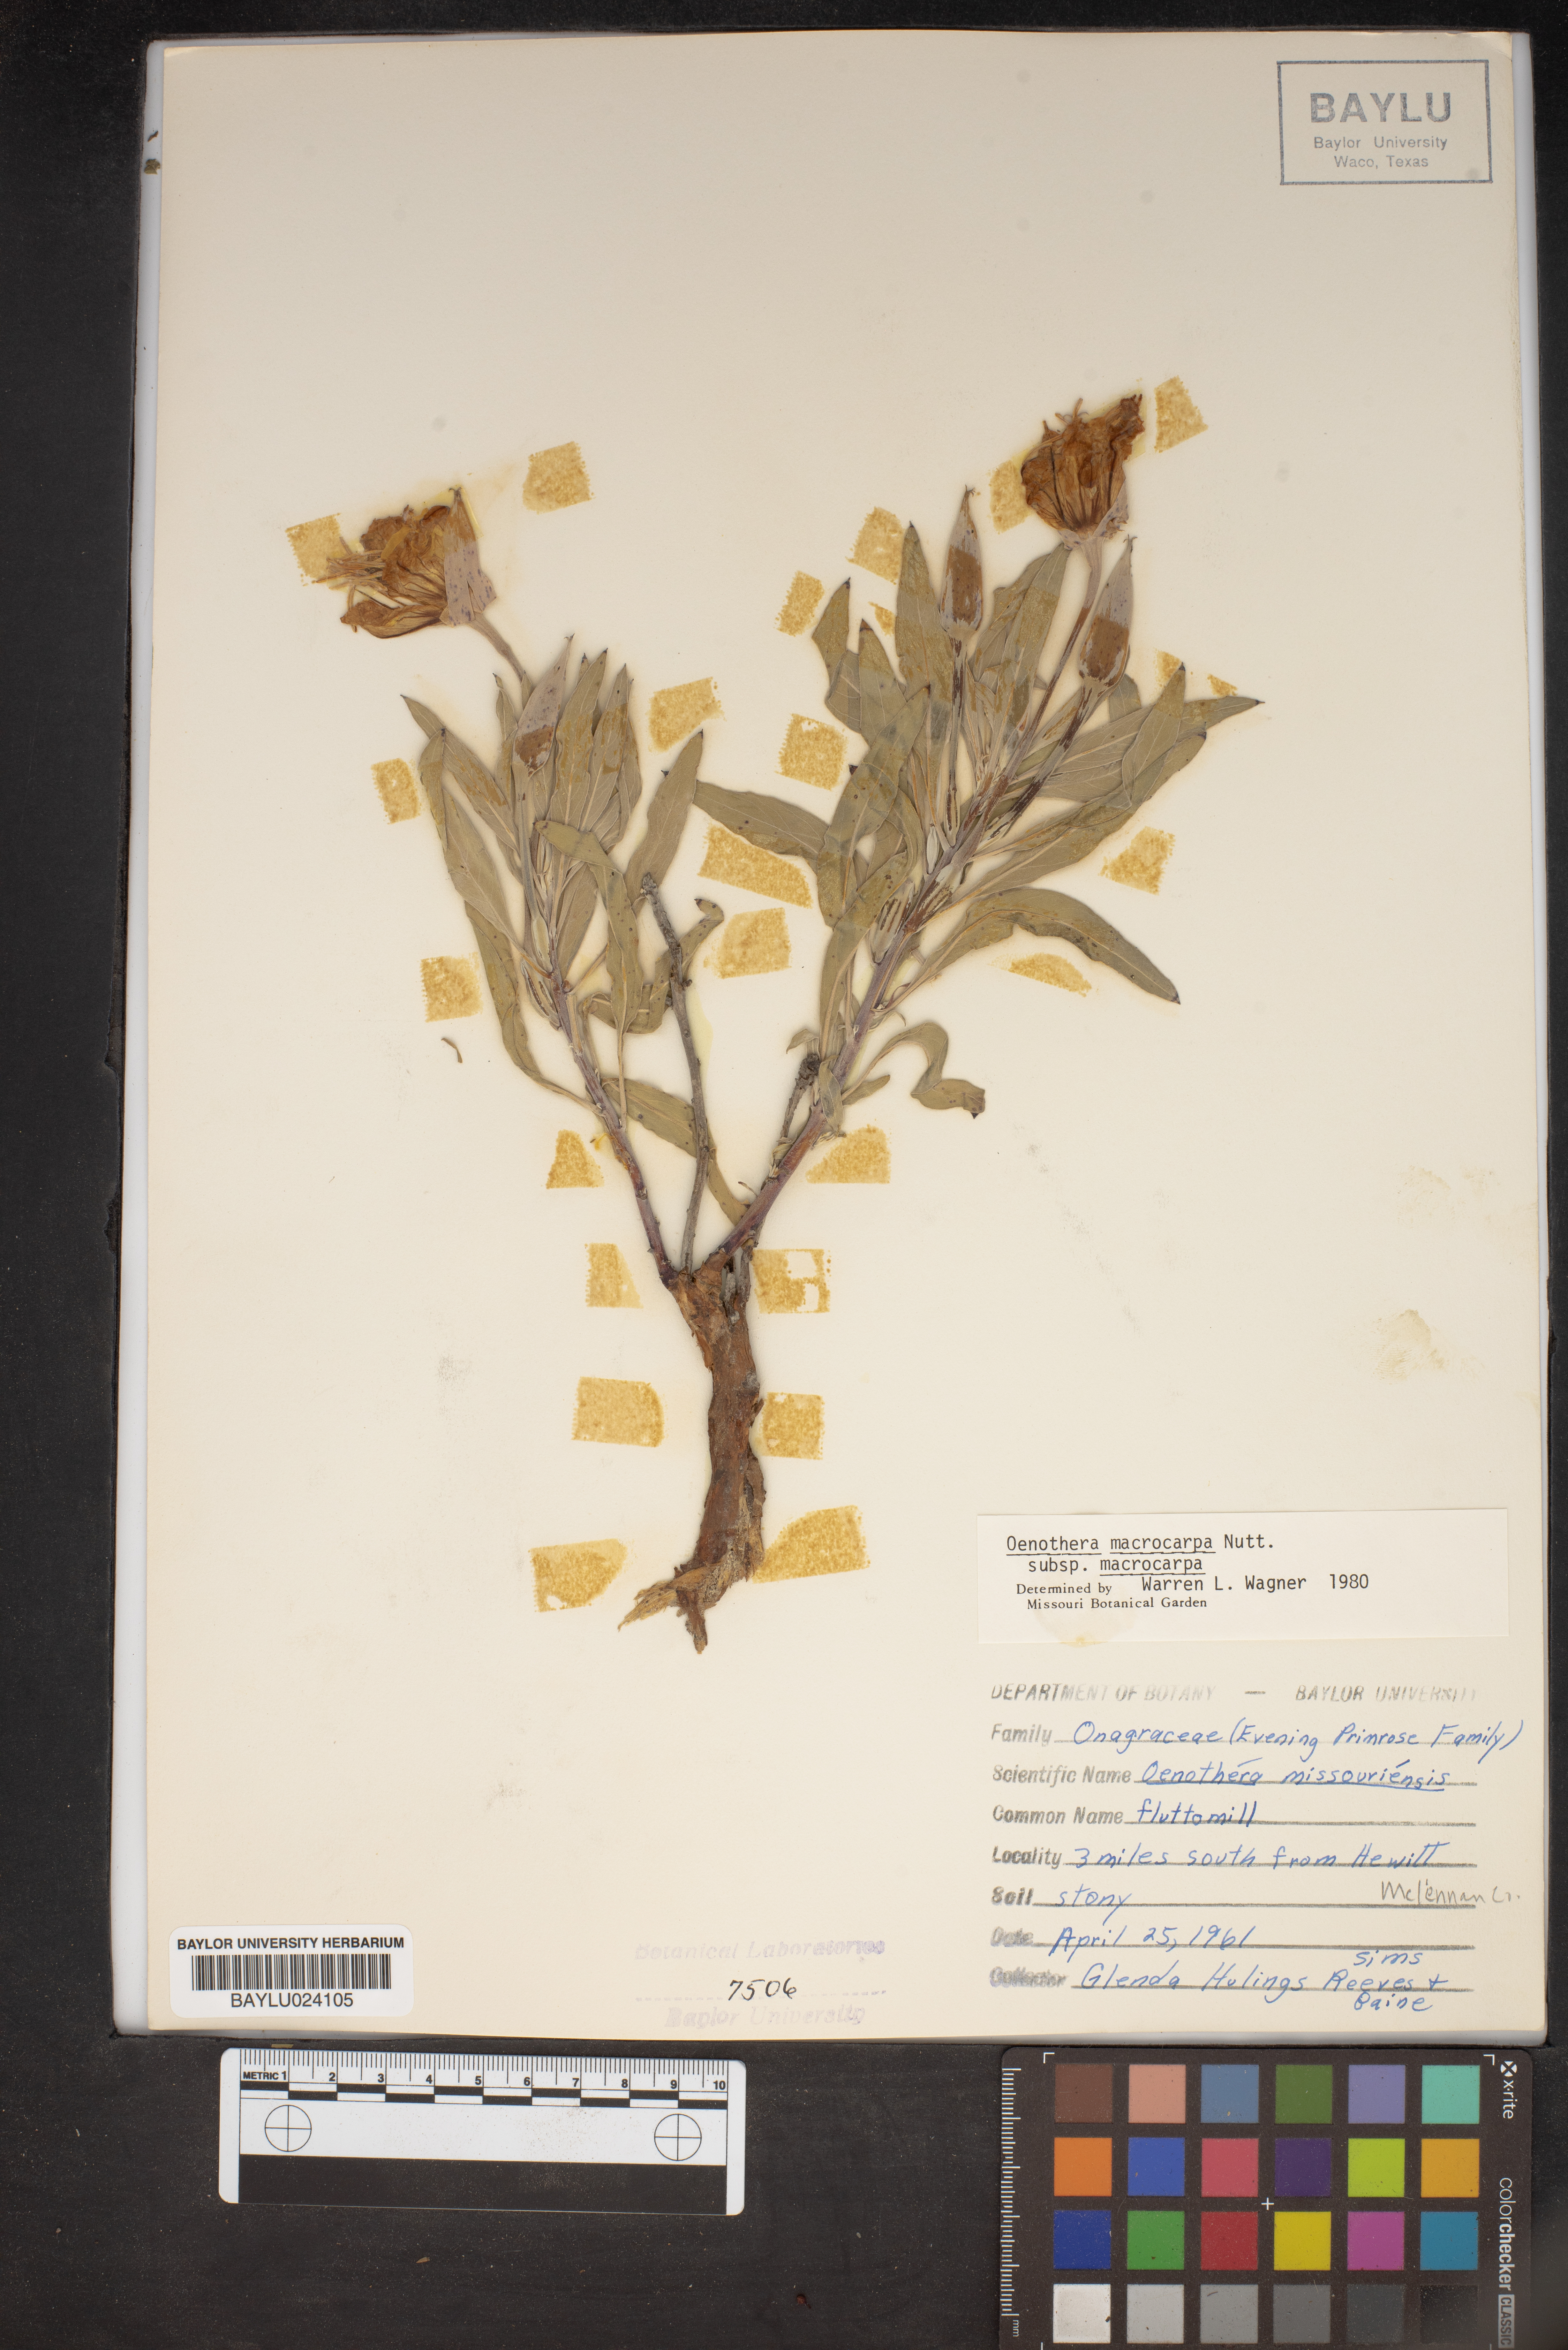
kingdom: Plantae
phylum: Tracheophyta
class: Magnoliopsida
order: Myrtales
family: Onagraceae
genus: Oenothera
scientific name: Oenothera macrocarpa
